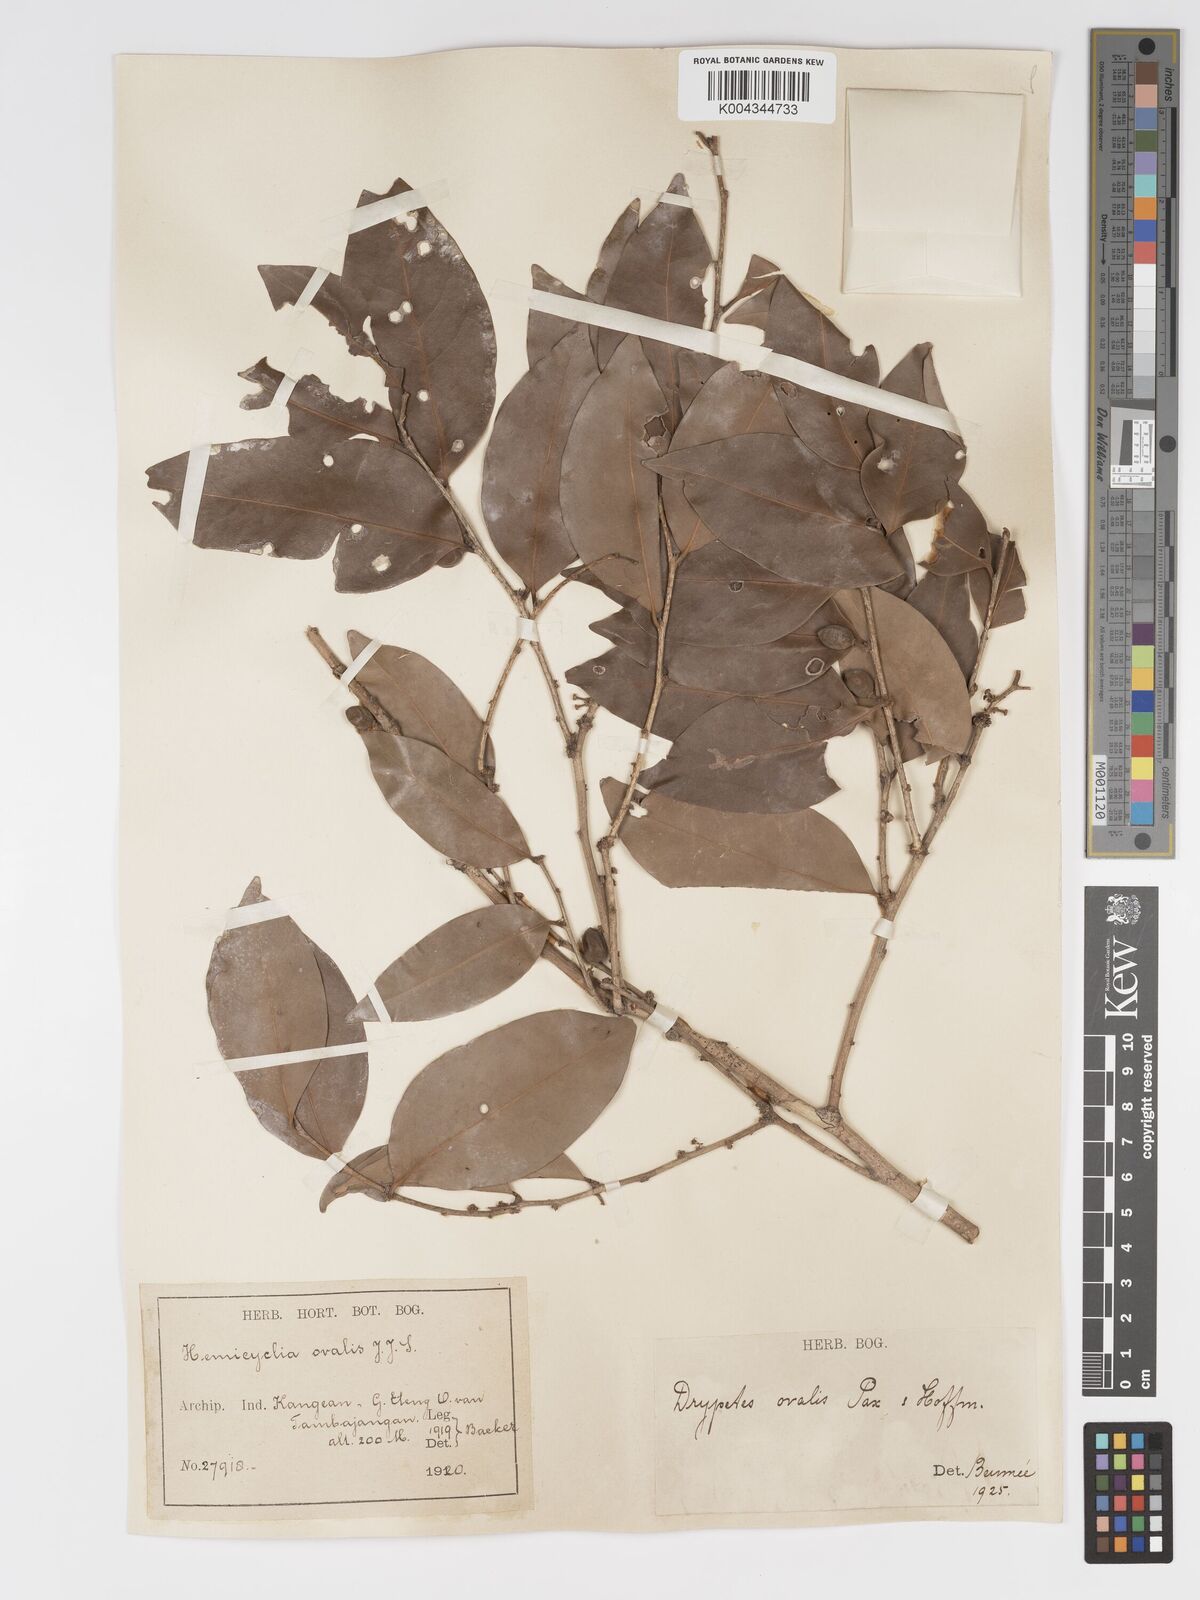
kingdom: Plantae
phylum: Tracheophyta
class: Magnoliopsida
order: Malpighiales
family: Putranjivaceae
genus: Drypetes
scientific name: Drypetes ovalis
